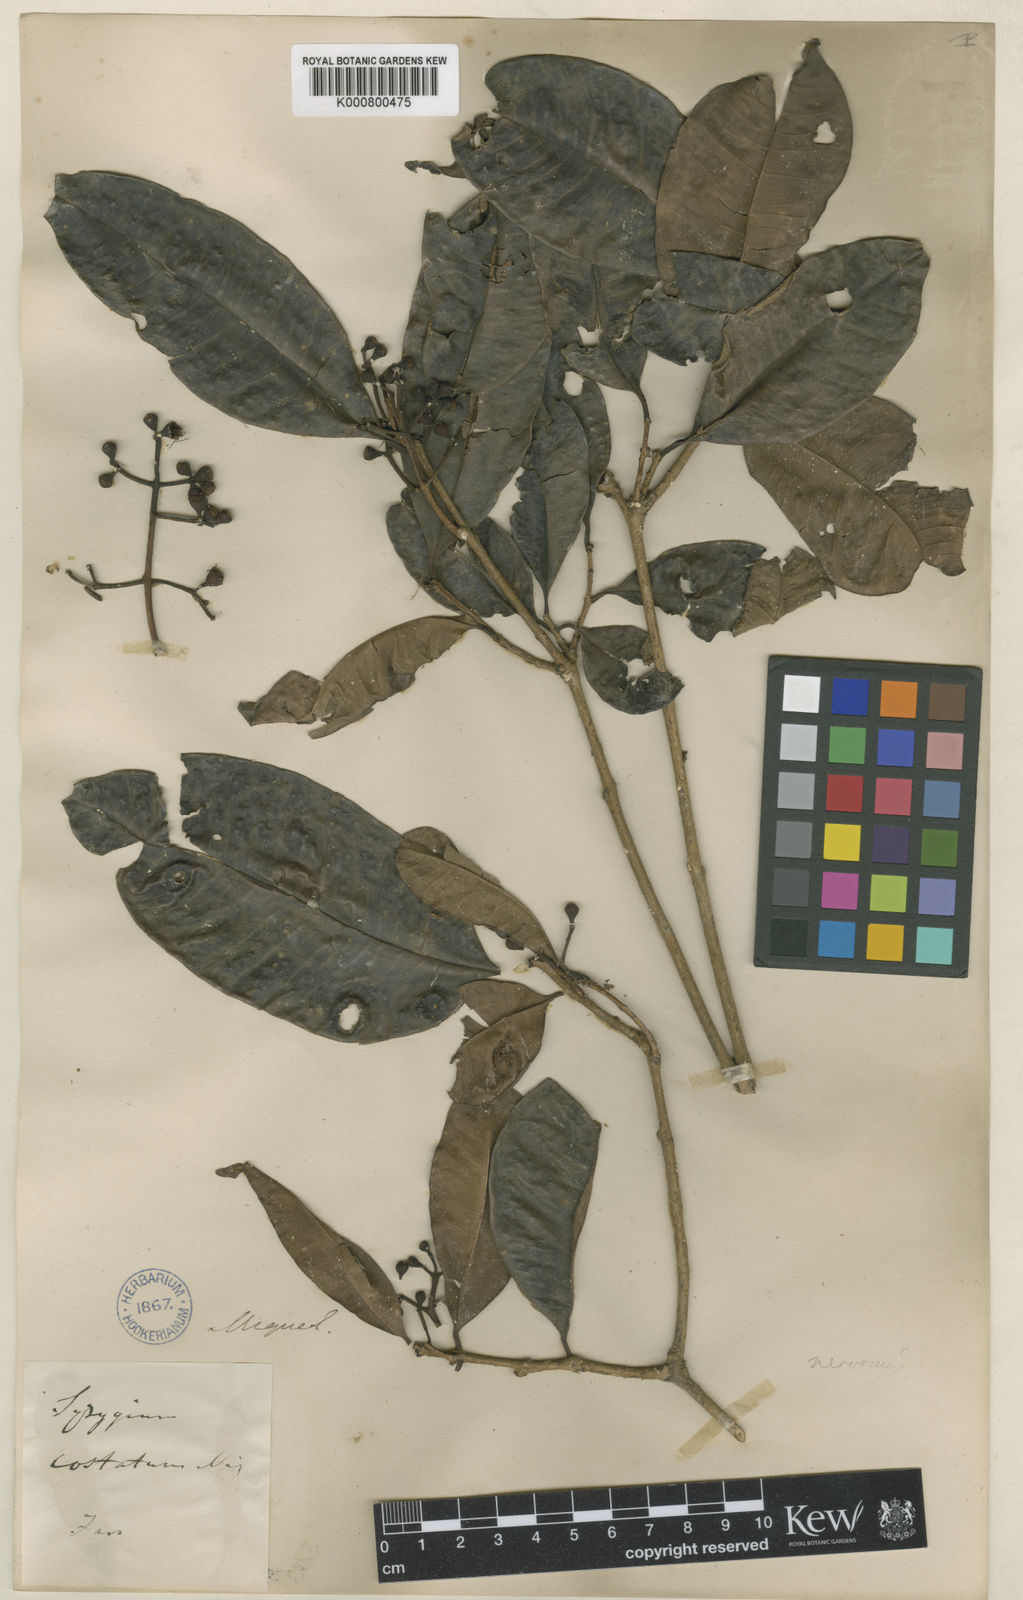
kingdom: Plantae
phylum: Tracheophyta
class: Magnoliopsida
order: Myrtales
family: Myrtaceae
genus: Syzygium
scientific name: Syzygium nervosum
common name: Daly river satinash
